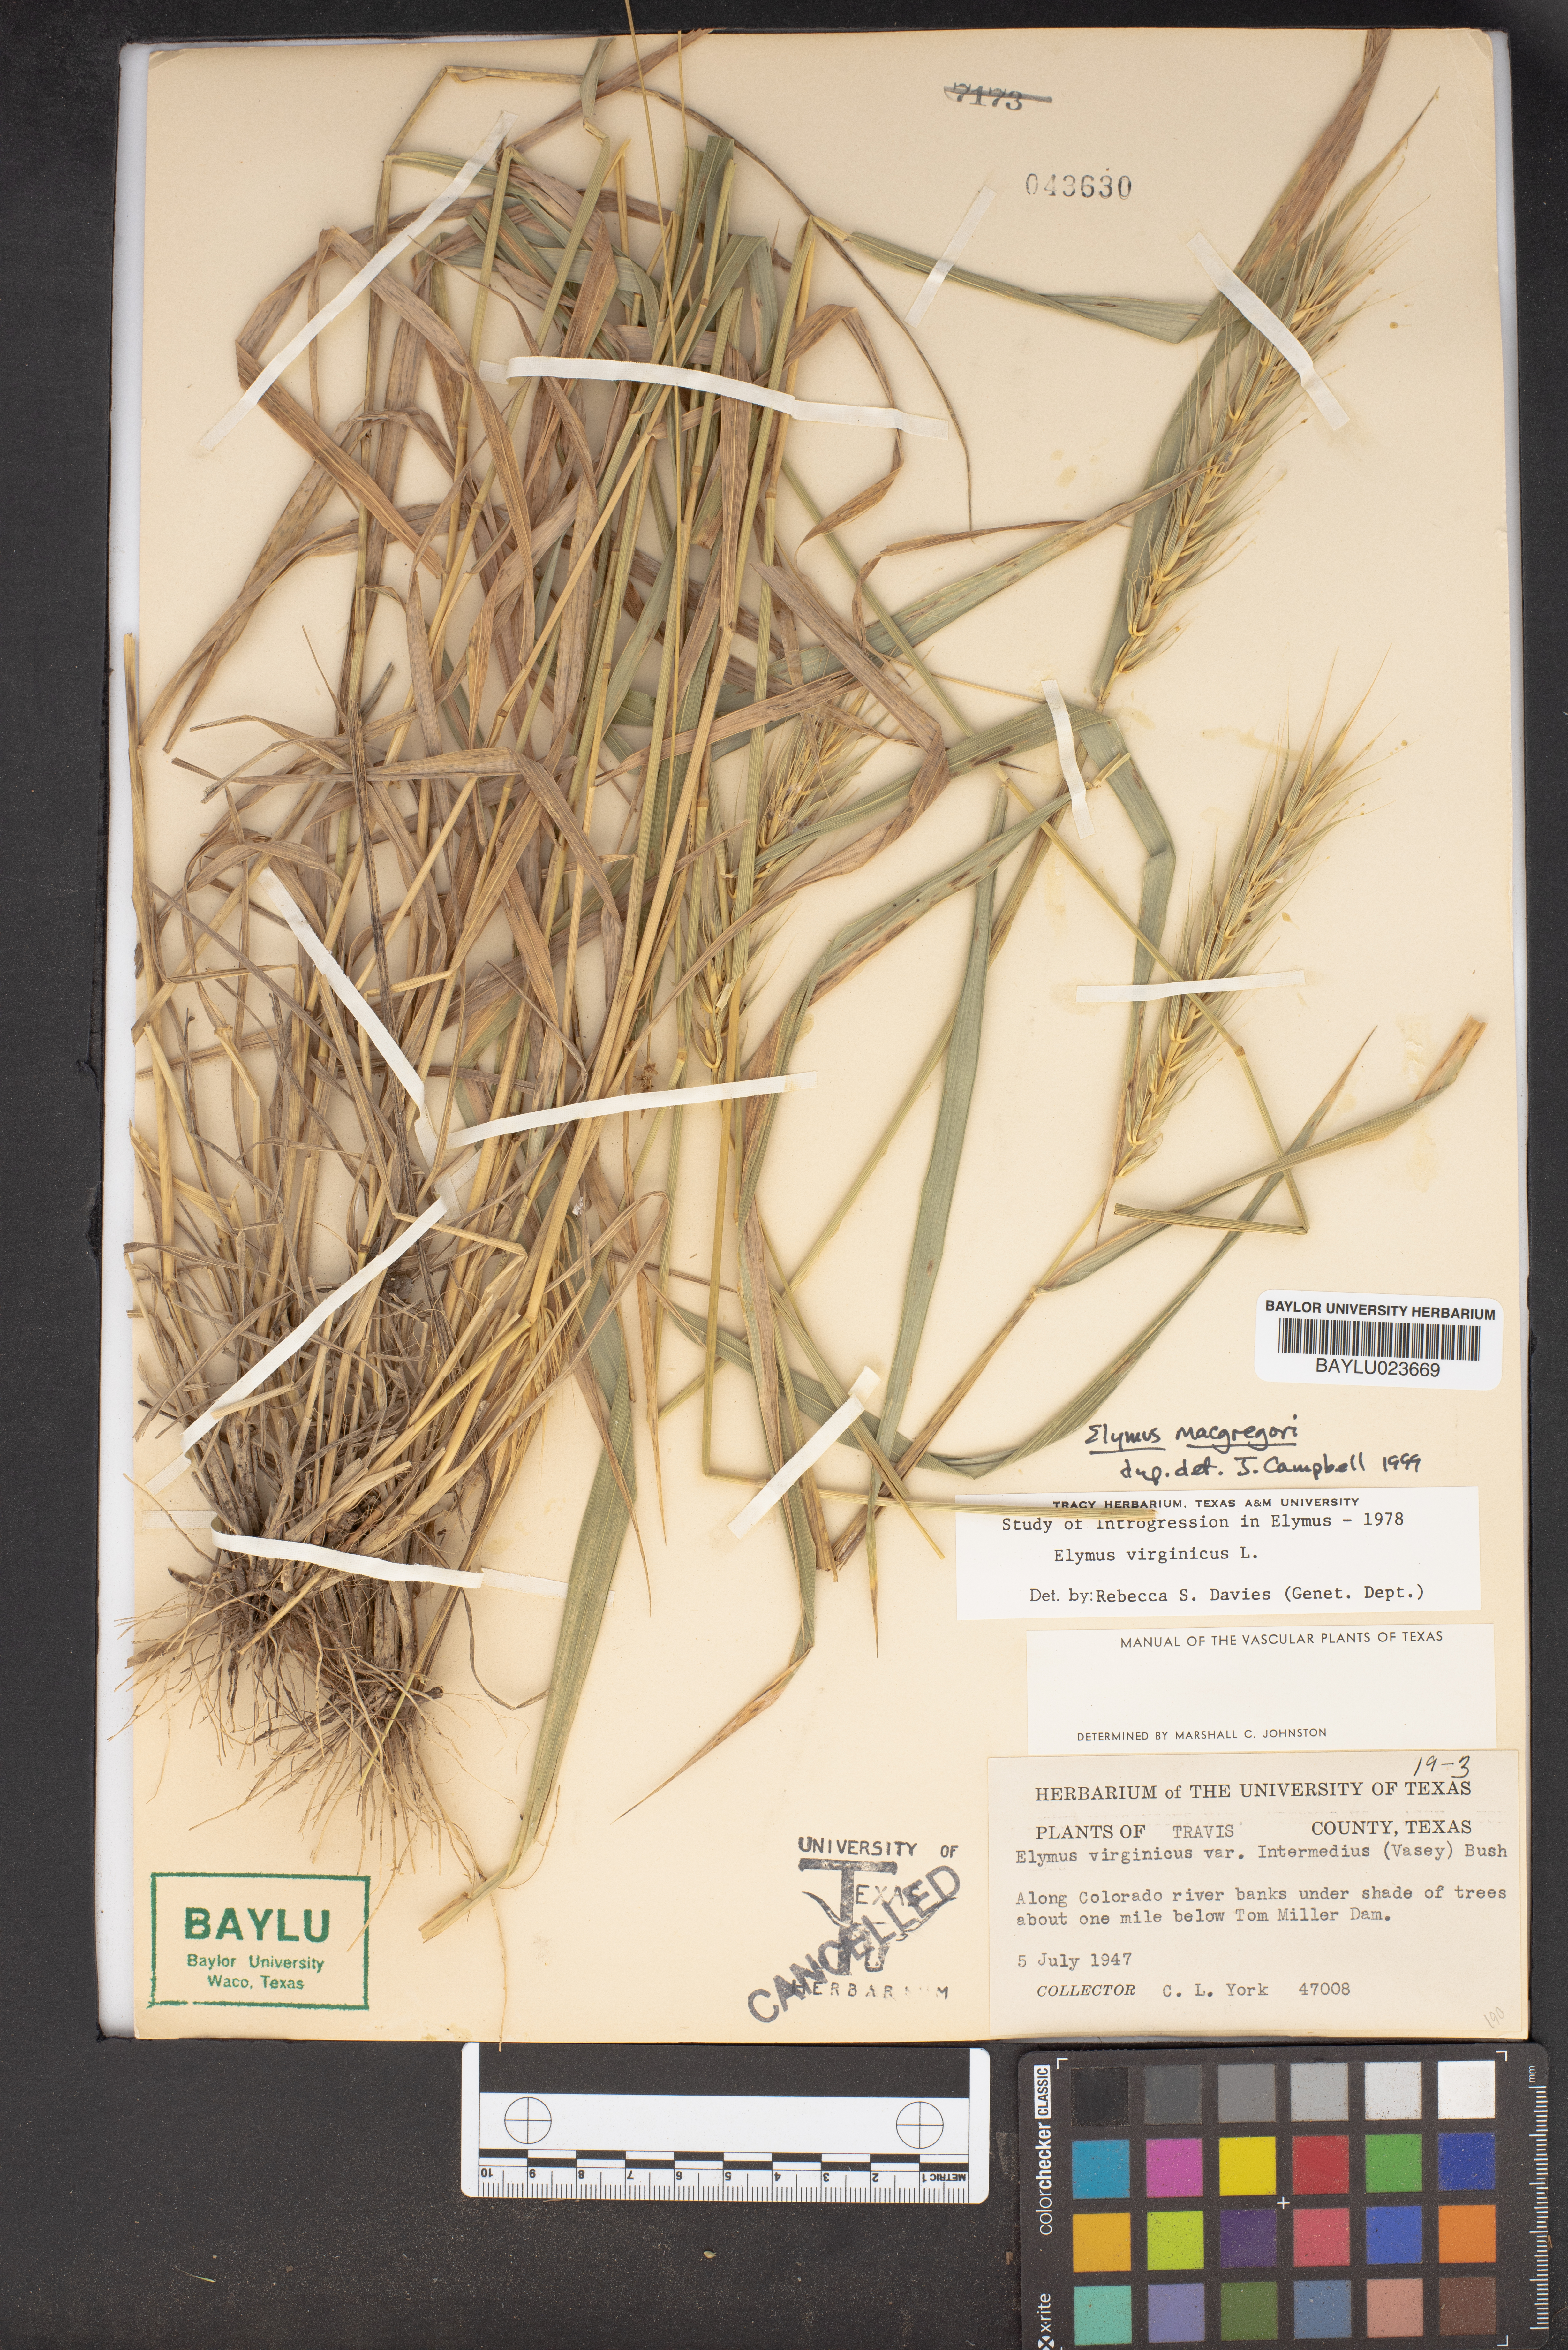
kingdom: Plantae
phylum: Tracheophyta
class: Liliopsida
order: Poales
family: Poaceae
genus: Elymus
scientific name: Elymus macgregorii
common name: Early wild rye
